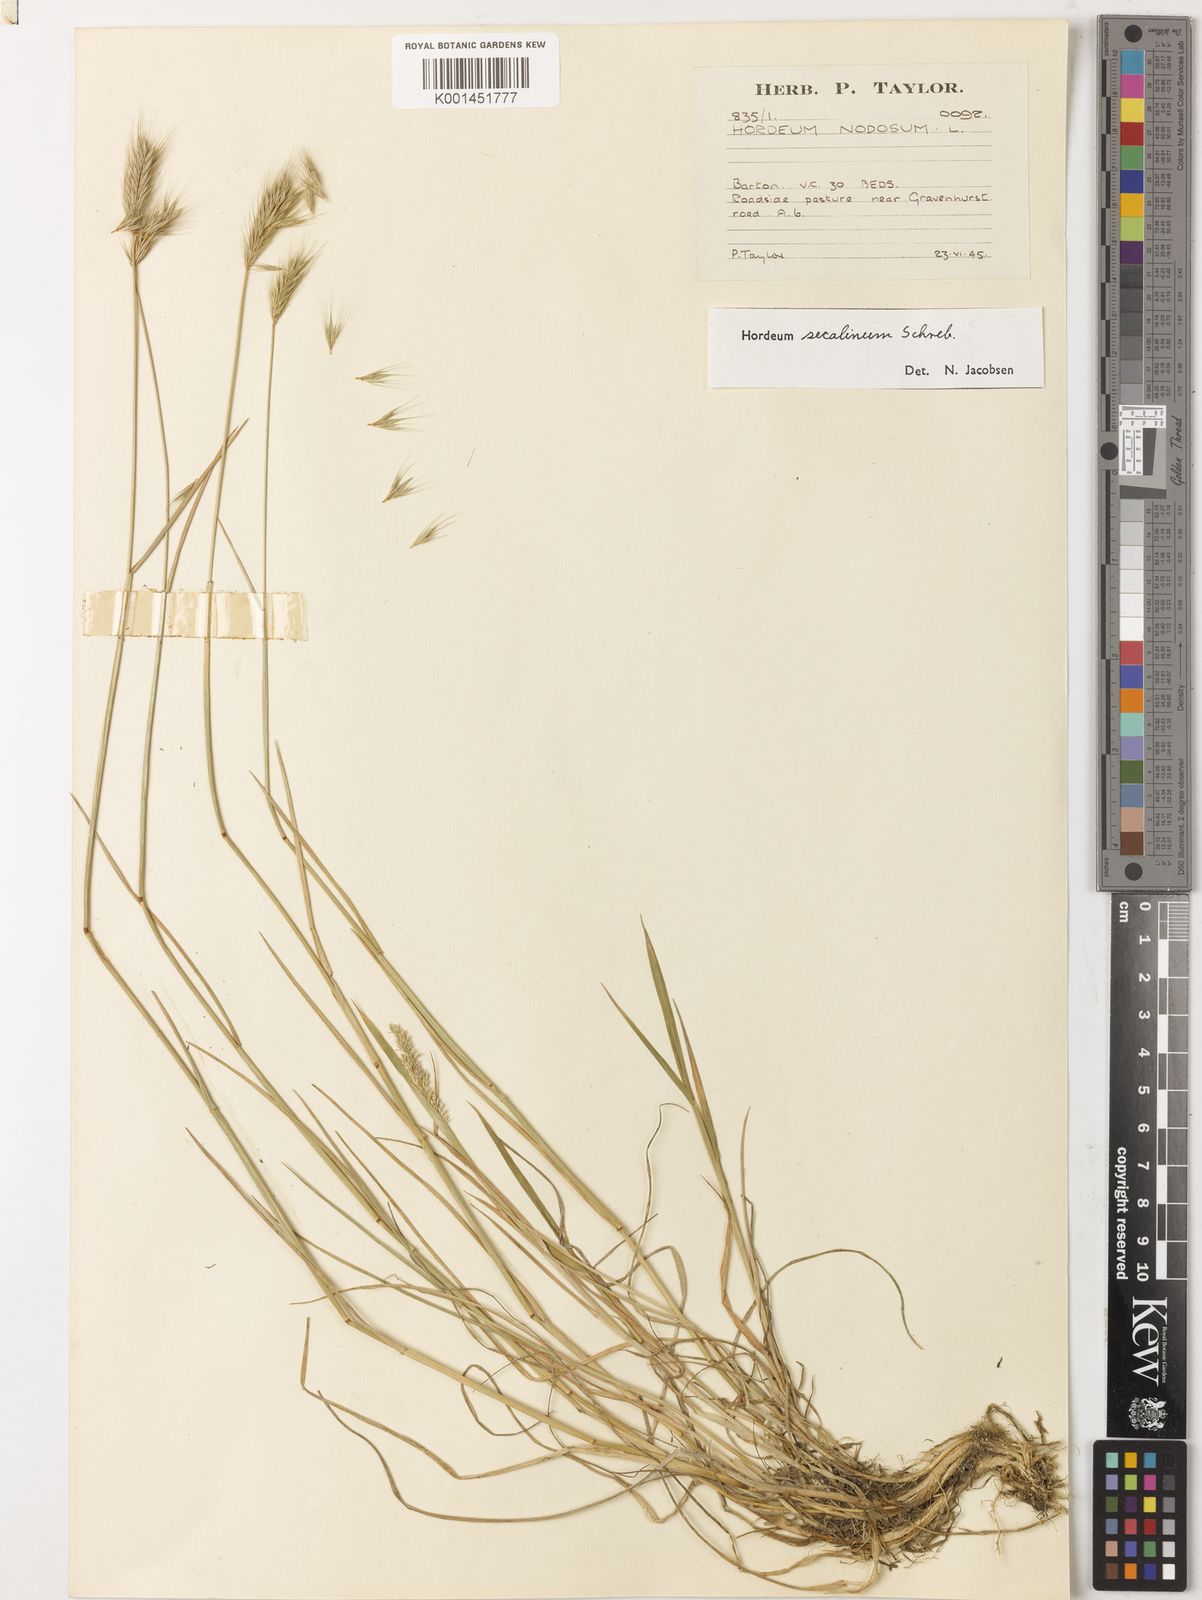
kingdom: Plantae
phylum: Tracheophyta
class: Liliopsida
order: Poales
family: Poaceae
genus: Hordeum
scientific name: Hordeum secalinum
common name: Meadow barley
